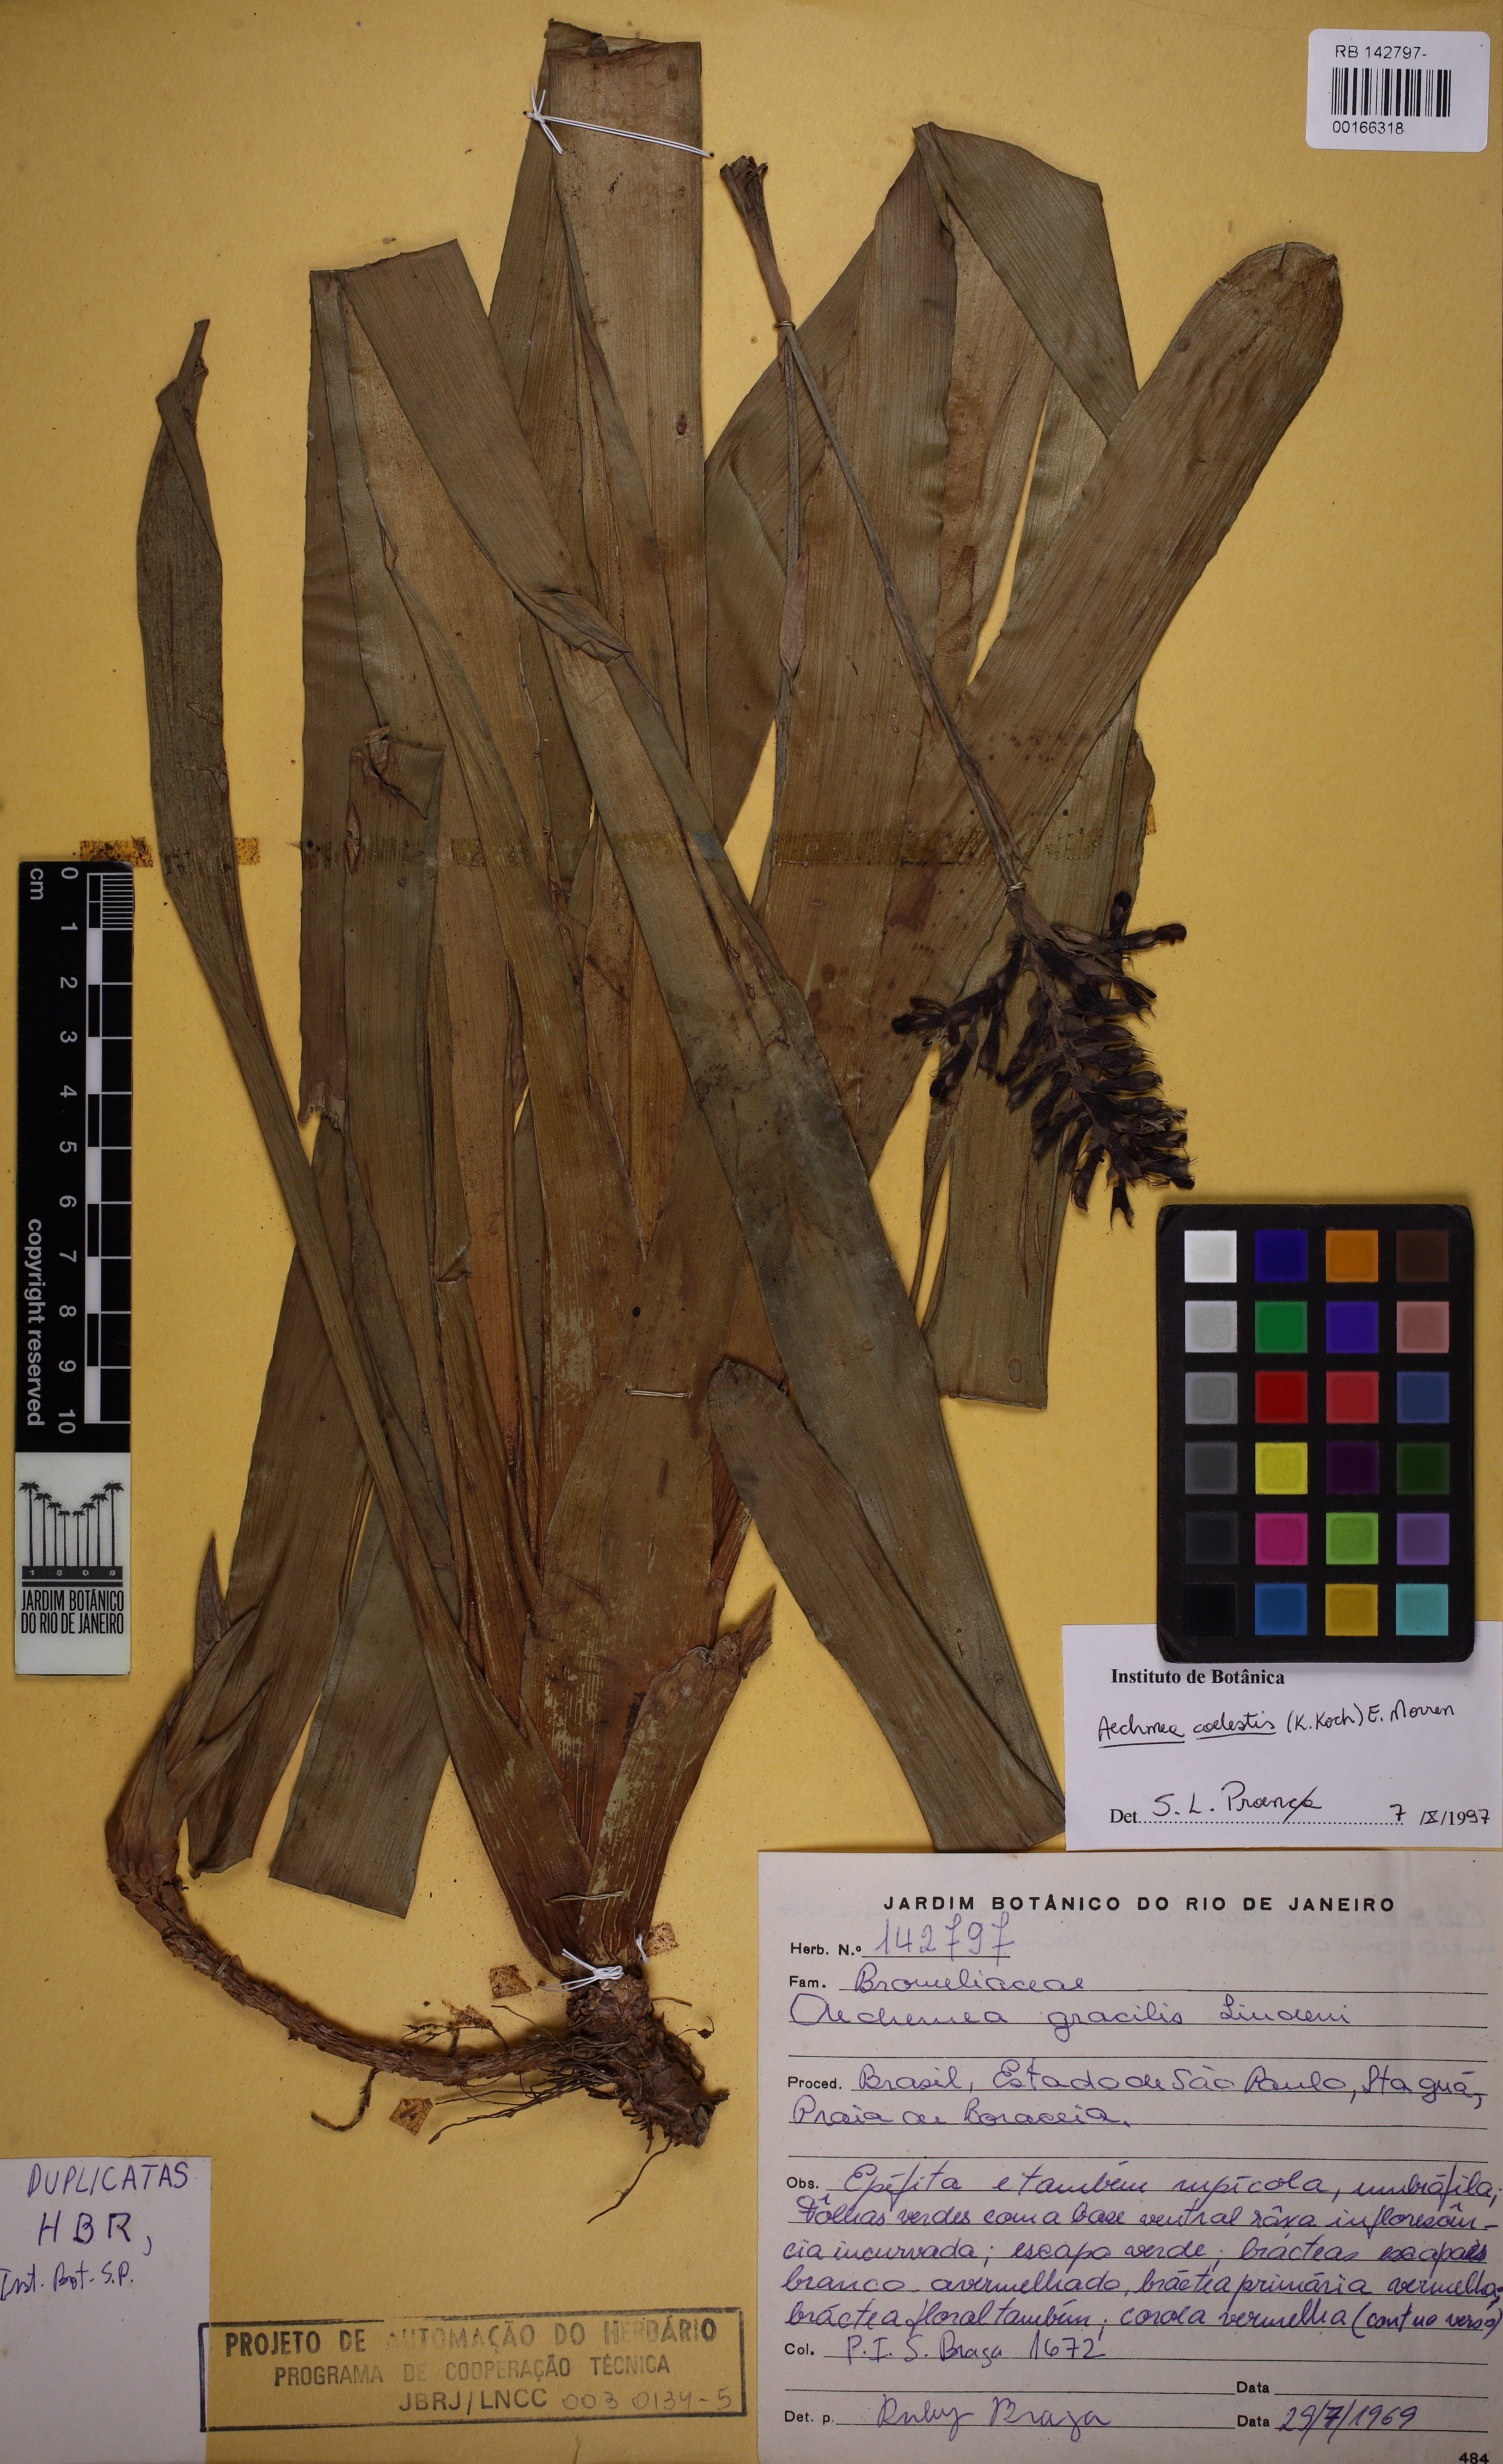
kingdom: Plantae
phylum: Tracheophyta
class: Liliopsida
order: Poales
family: Bromeliaceae
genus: Aechmea
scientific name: Aechmea
